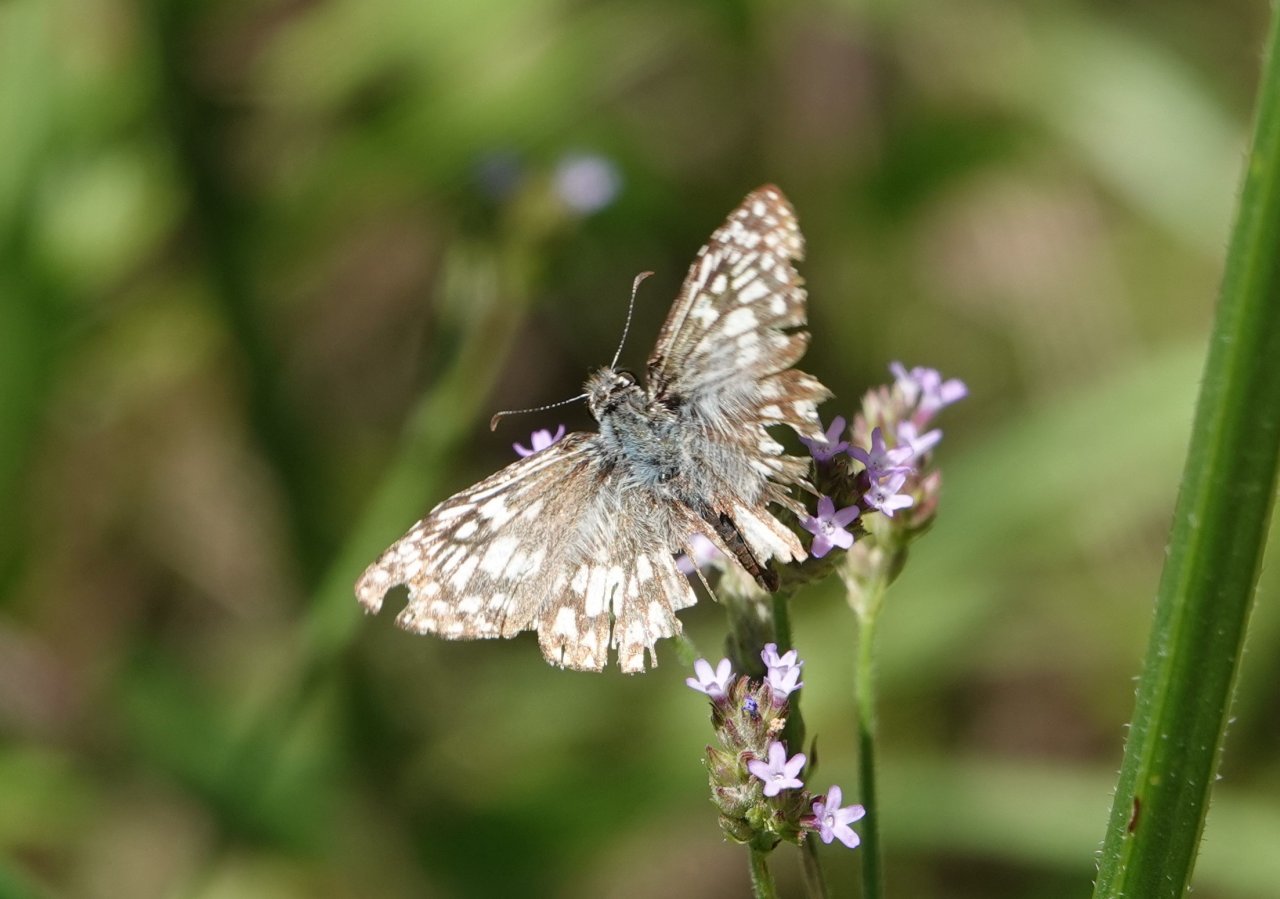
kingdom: Animalia
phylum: Arthropoda
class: Insecta
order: Lepidoptera
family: Hesperiidae
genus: Pyrgus
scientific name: Pyrgus oileus
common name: Tropical Checkered-Skipper
